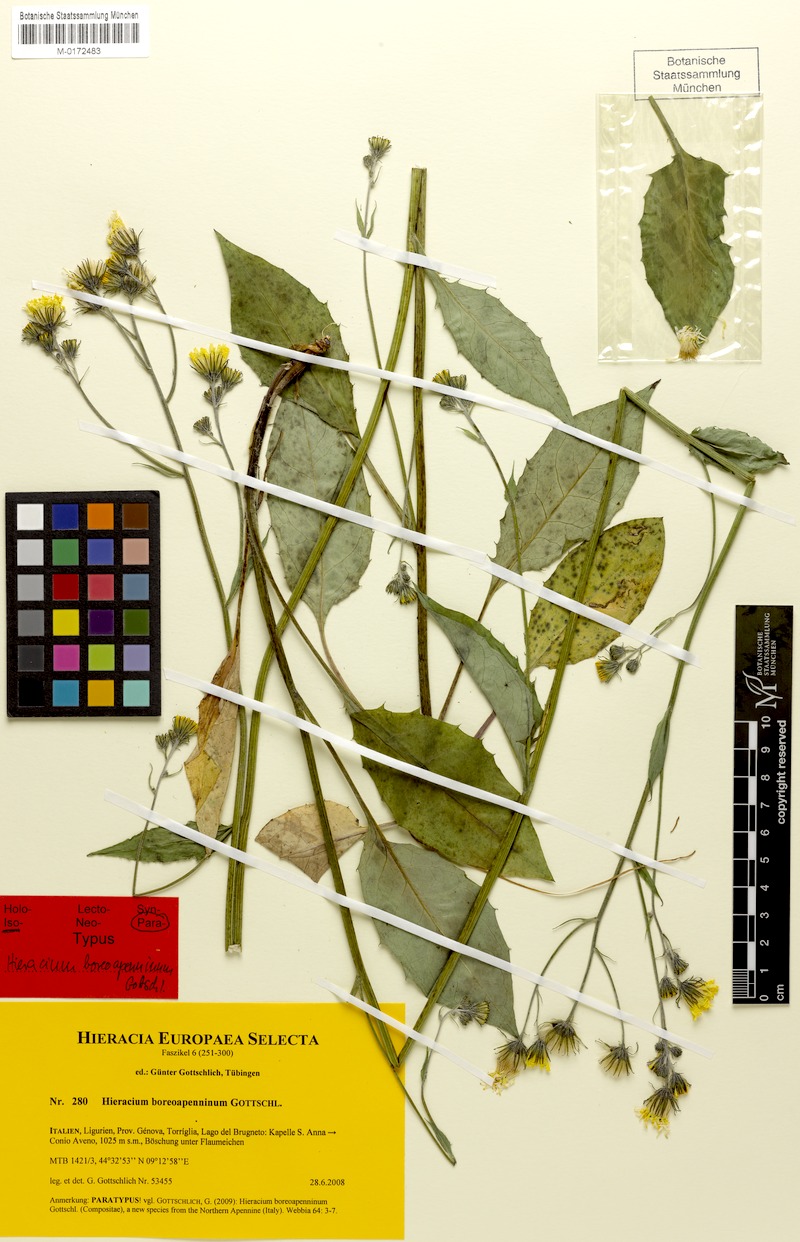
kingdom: Plantae
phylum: Tracheophyta
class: Magnoliopsida
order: Asterales
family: Asteraceae
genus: Hieracium
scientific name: Hieracium boreoapenninum
